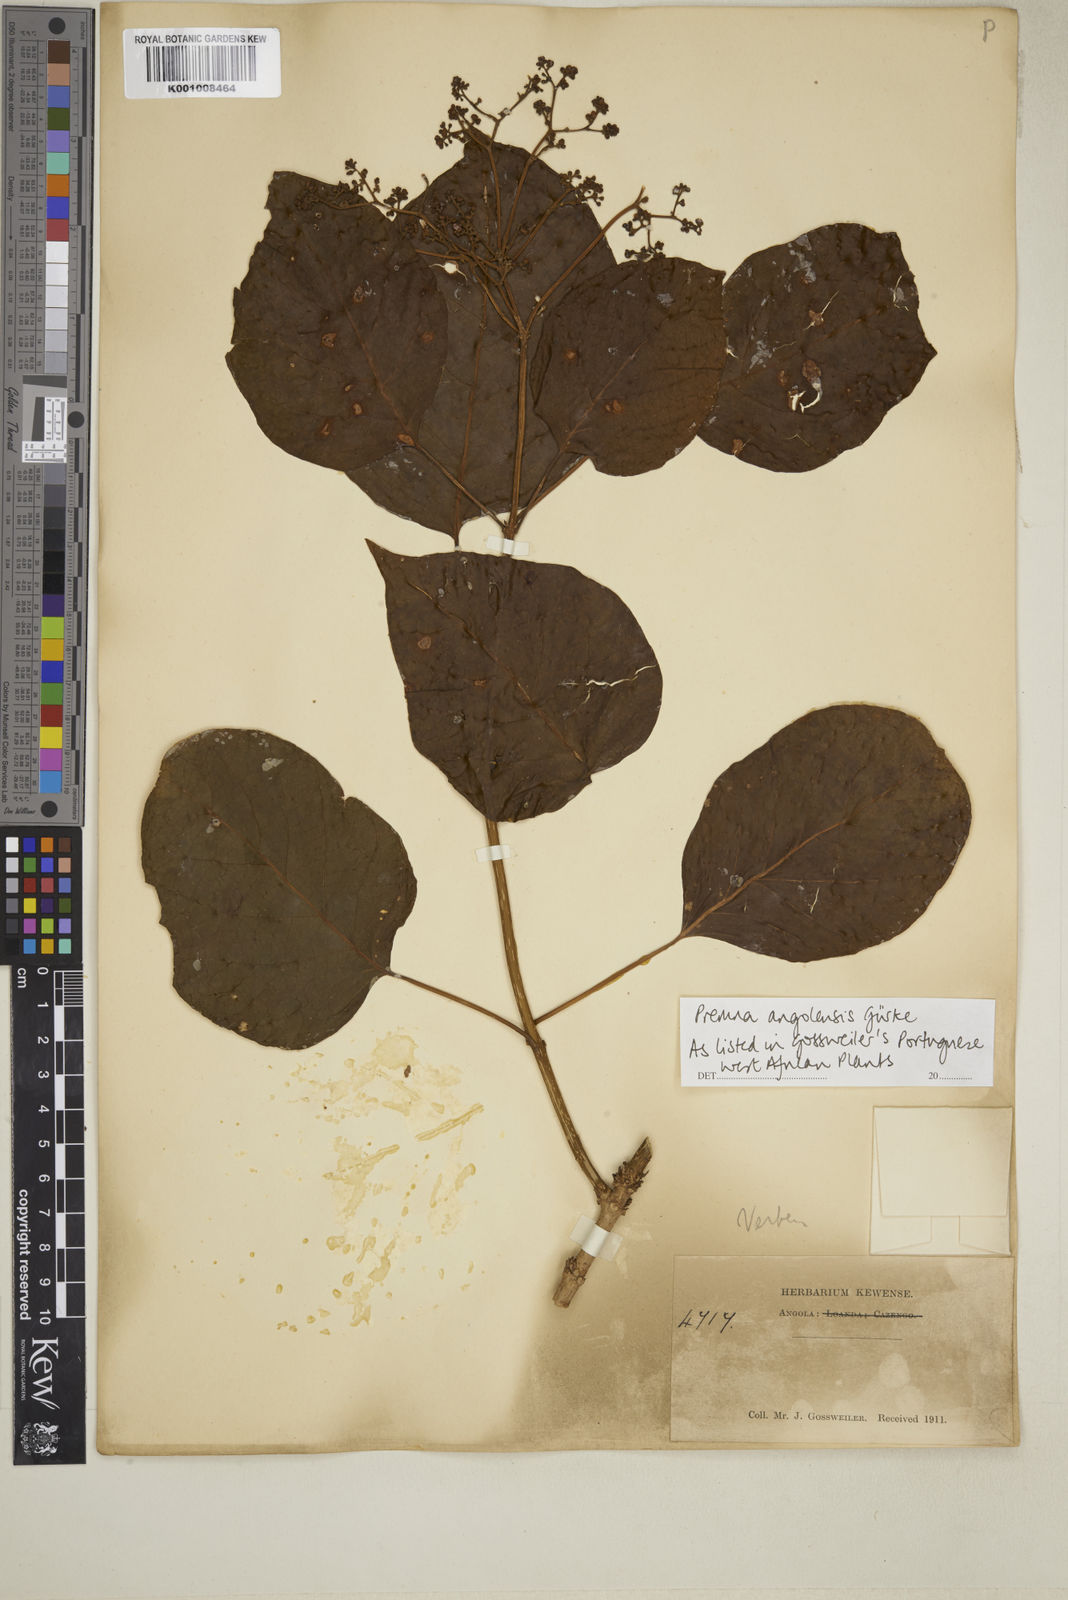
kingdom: Plantae
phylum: Tracheophyta
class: Magnoliopsida
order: Lamiales
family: Lamiaceae
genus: Premna
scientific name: Premna
